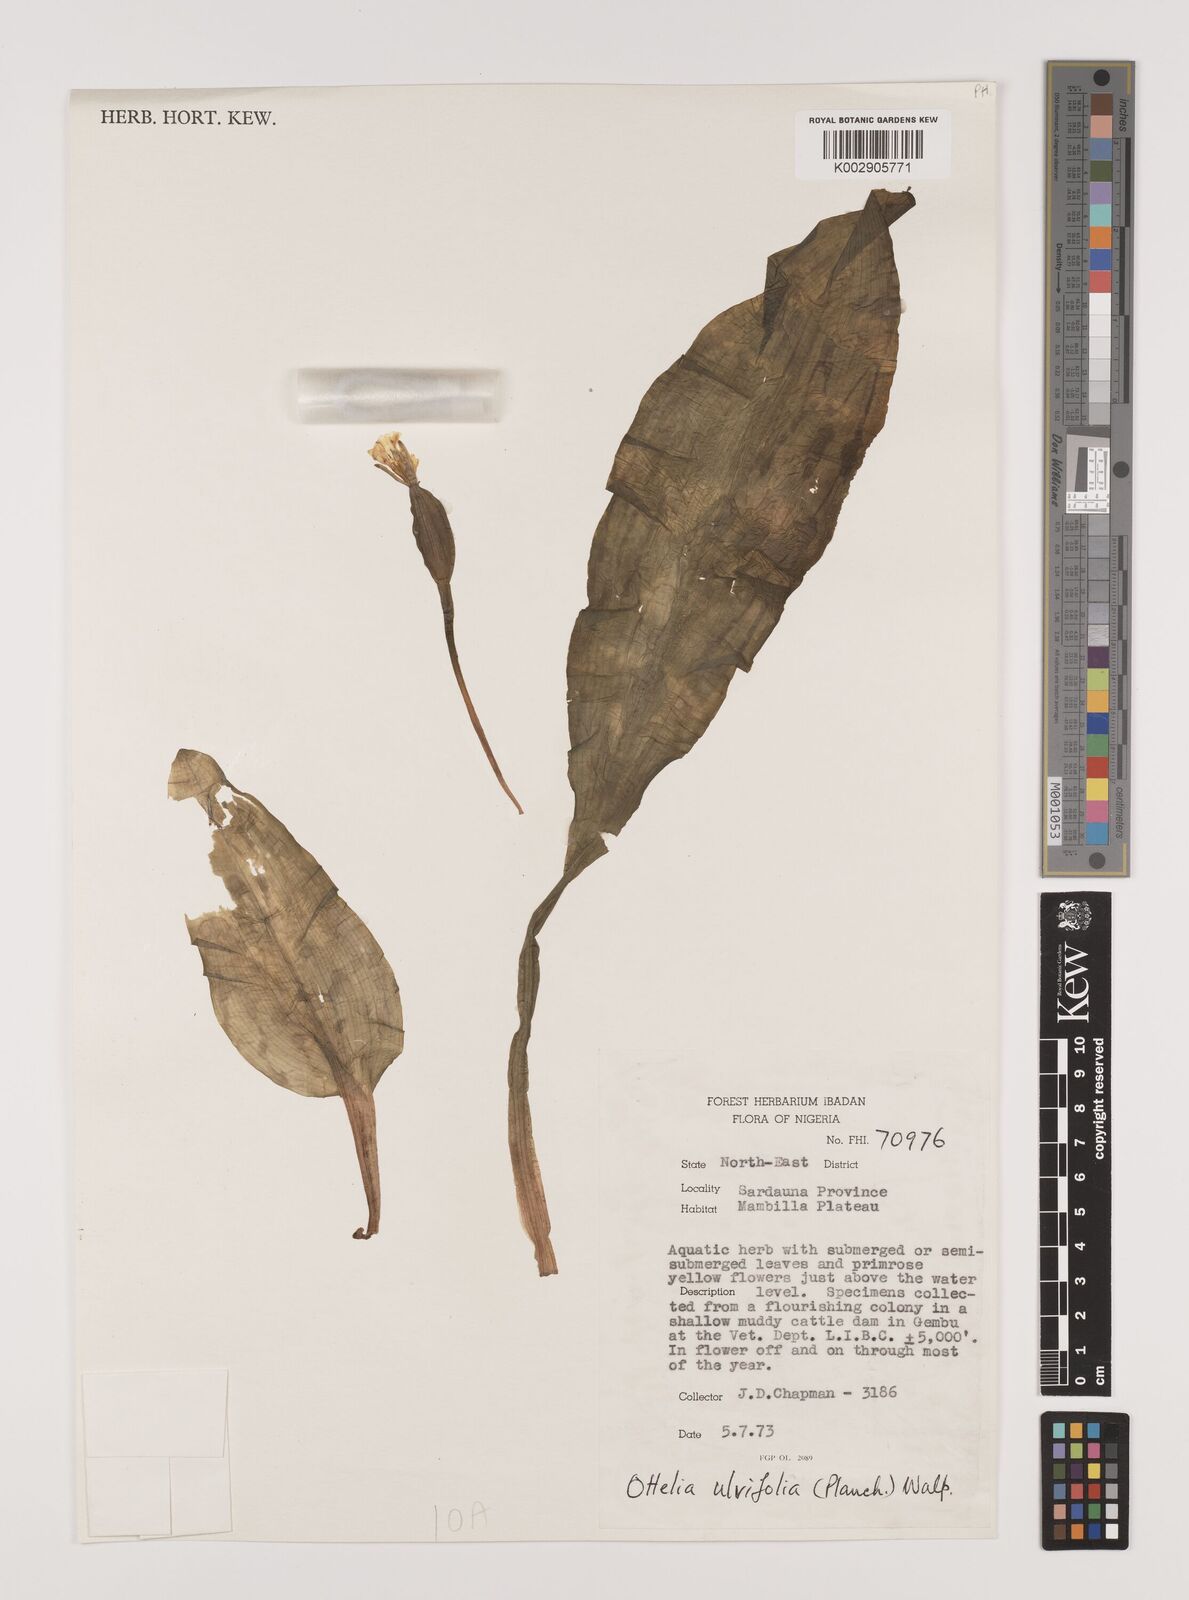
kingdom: Plantae
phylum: Tracheophyta
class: Liliopsida
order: Alismatales
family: Hydrocharitaceae
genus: Ottelia
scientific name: Ottelia ulvifolia
